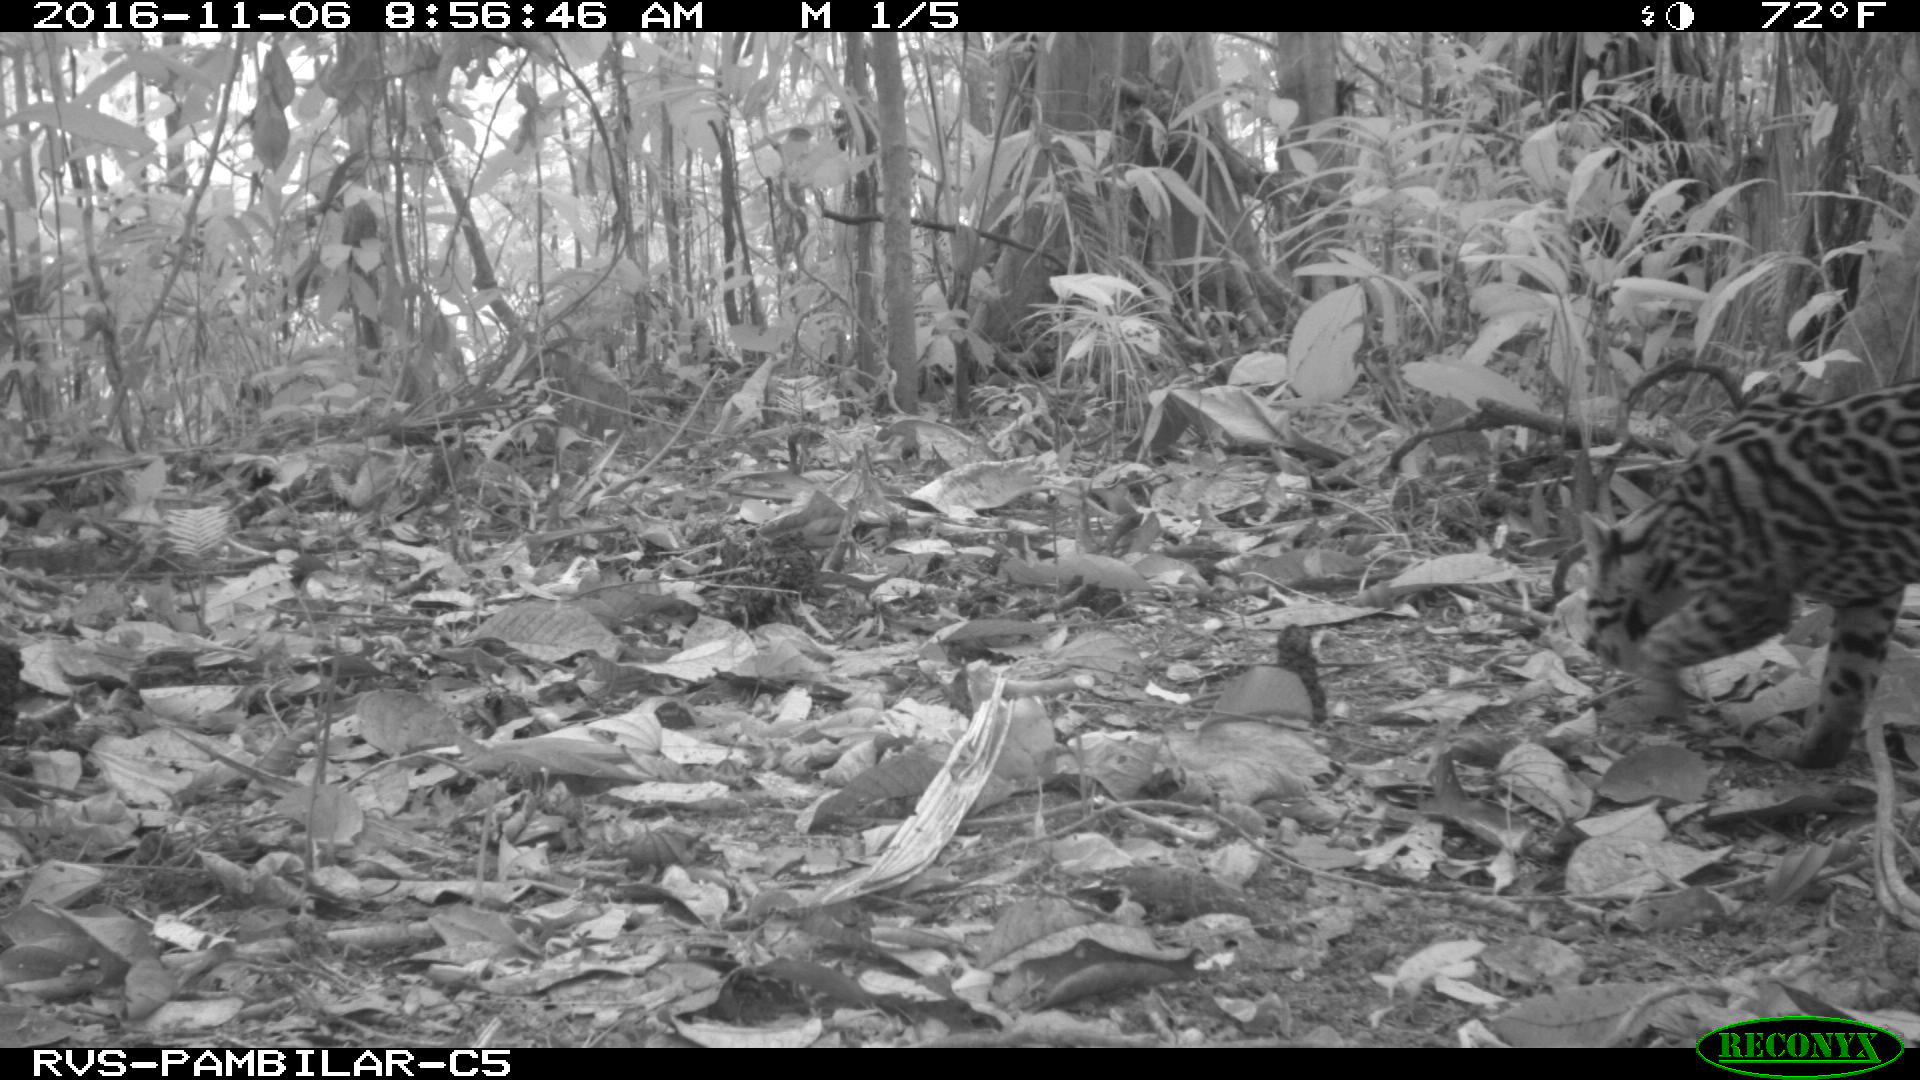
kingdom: Animalia
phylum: Chordata
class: Mammalia
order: Carnivora
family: Felidae
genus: Leopardus
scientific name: Leopardus pardalis
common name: Ocelot
